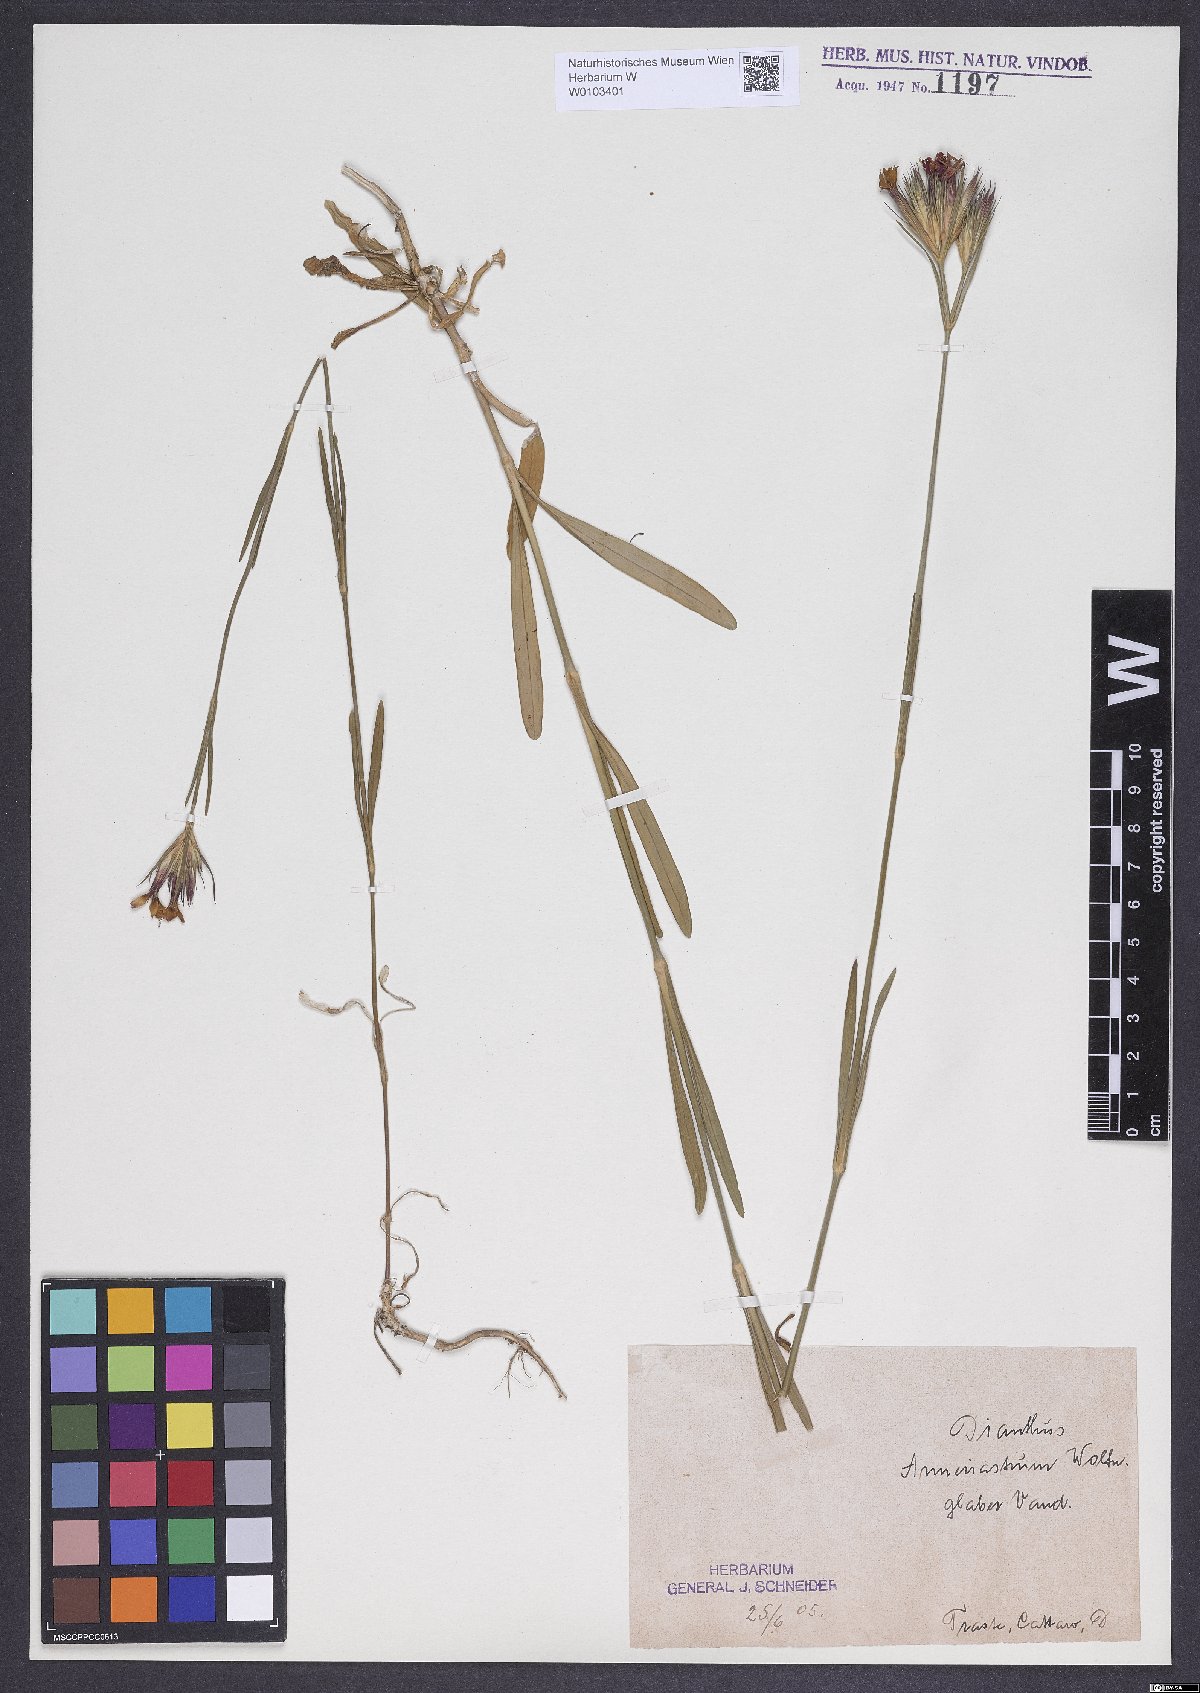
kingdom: Plantae
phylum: Tracheophyta
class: Magnoliopsida
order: Caryophyllales
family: Caryophyllaceae
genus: Dianthus
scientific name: Dianthus corymbosus
